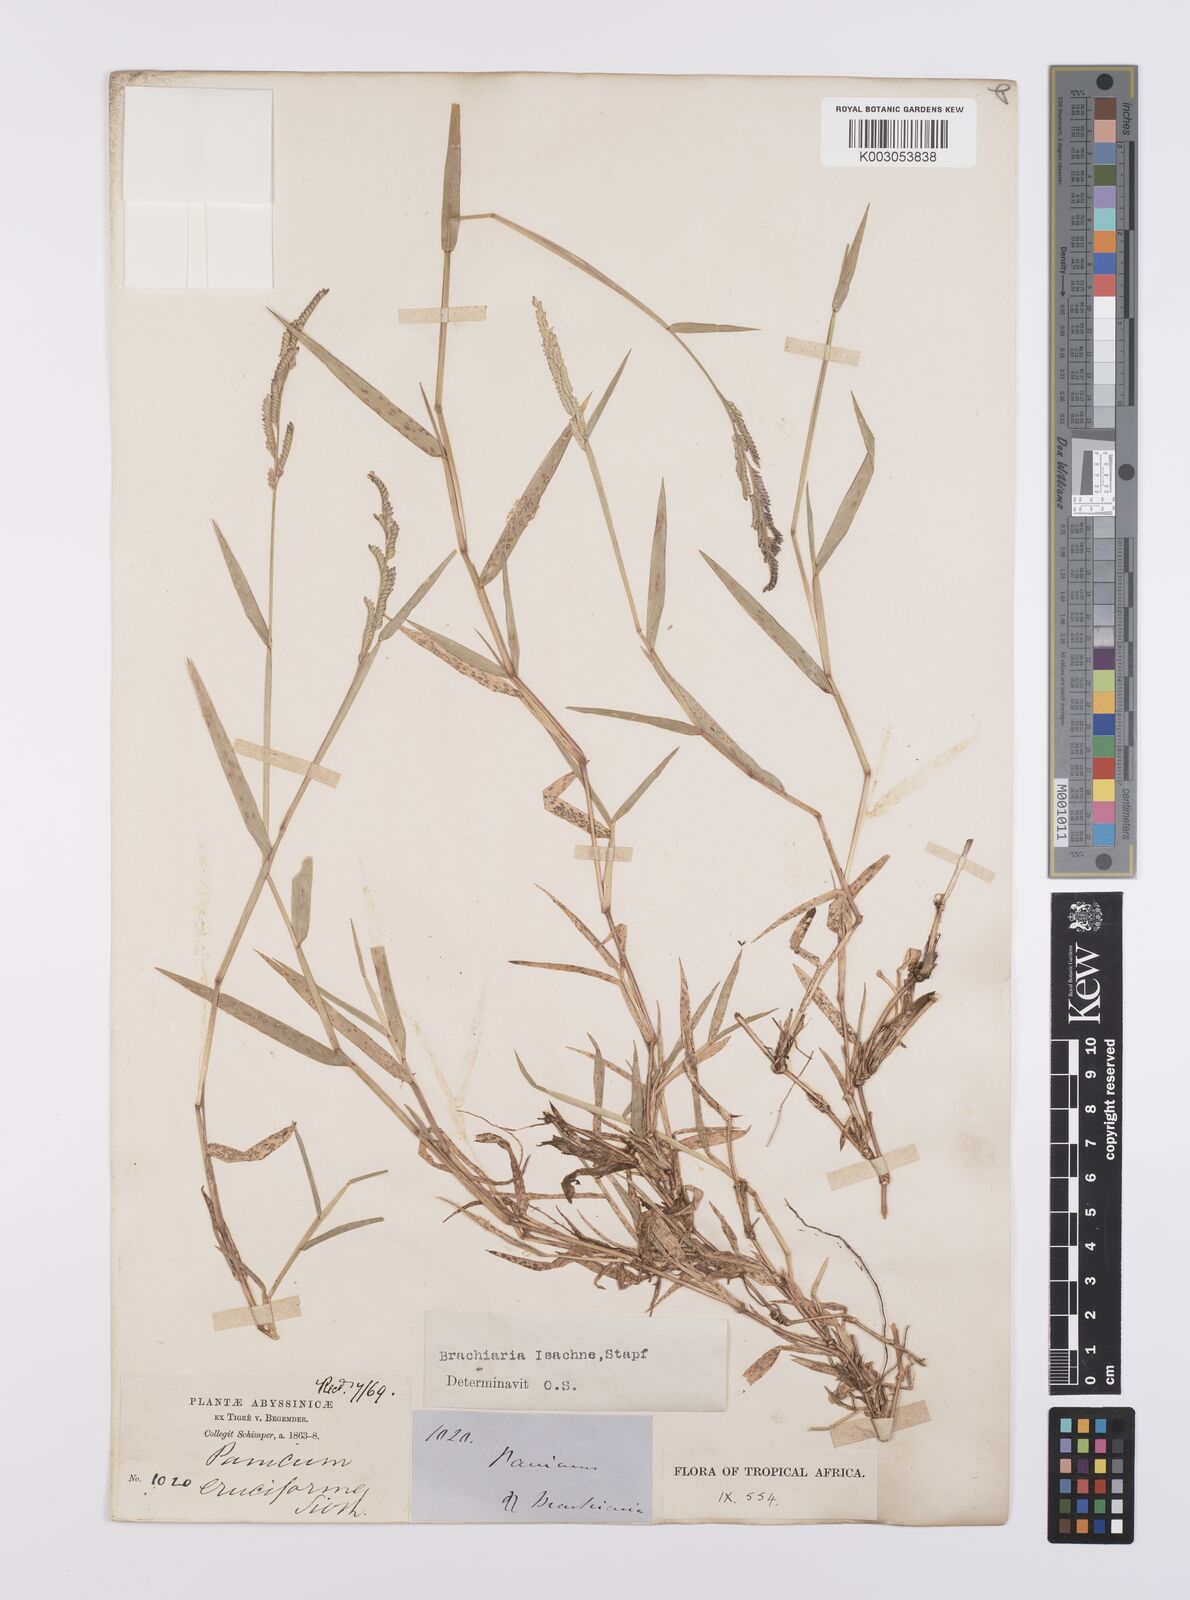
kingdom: Plantae
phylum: Tracheophyta
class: Liliopsida
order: Poales
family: Poaceae
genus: Moorochloa
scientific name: Moorochloa eruciformis
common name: Sweet signalgrass
